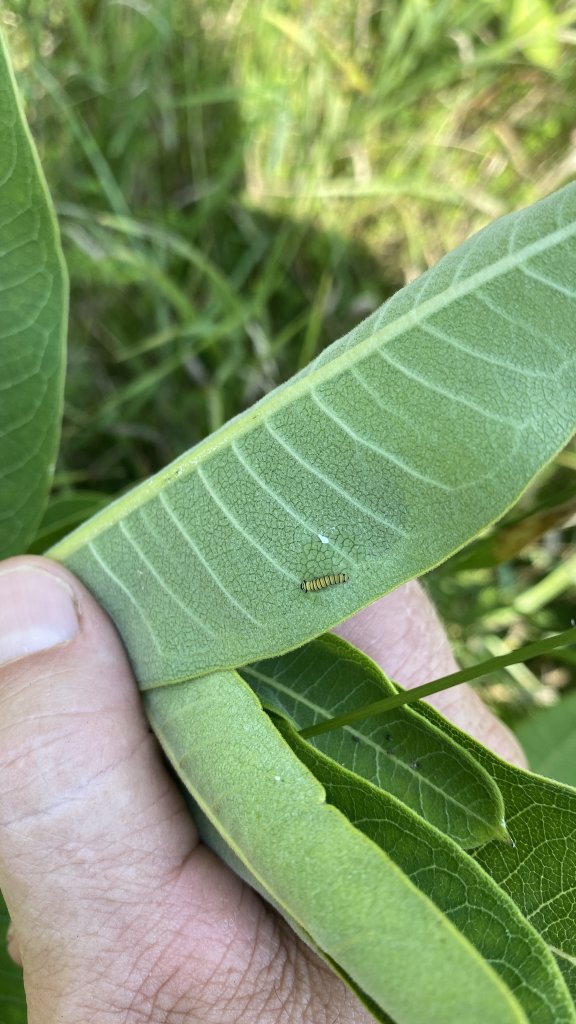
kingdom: Animalia
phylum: Arthropoda
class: Insecta
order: Lepidoptera
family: Nymphalidae
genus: Danaus
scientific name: Danaus plexippus
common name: Monarch
